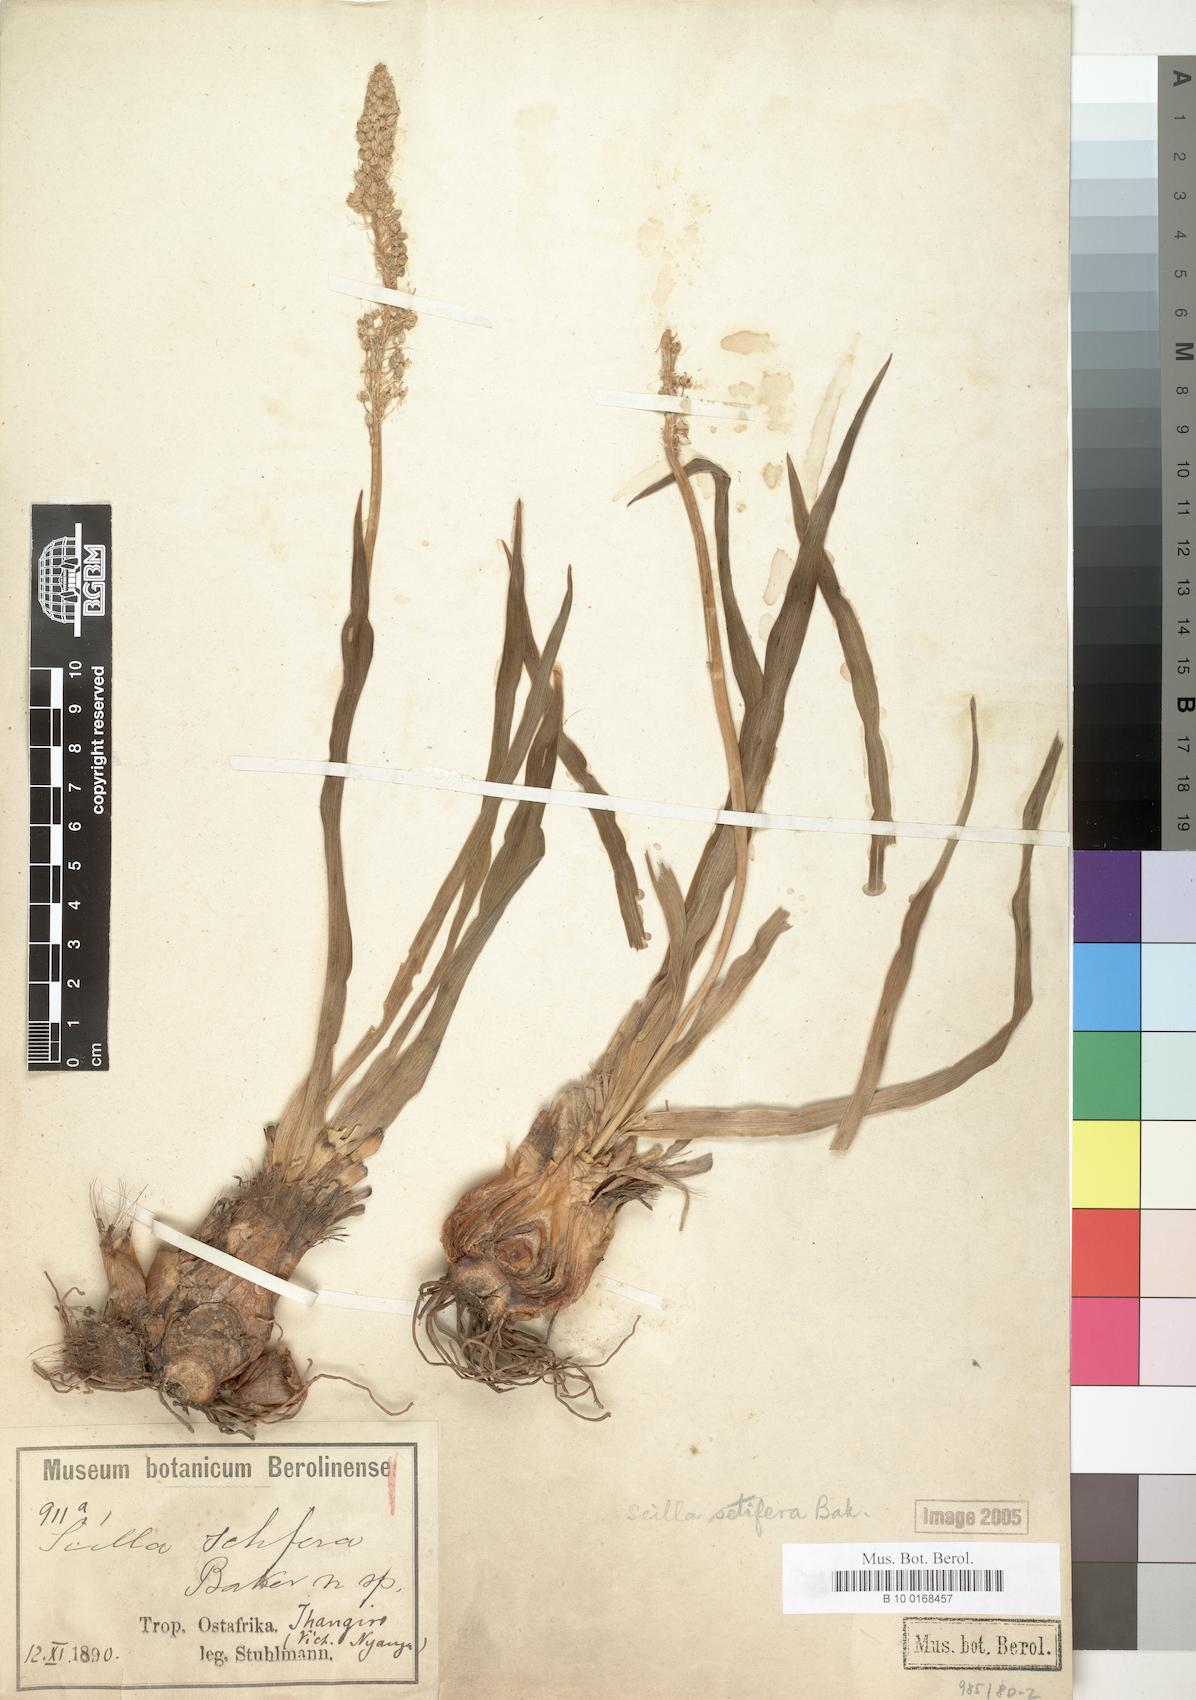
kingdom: Plantae
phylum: Tracheophyta
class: Liliopsida
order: Asparagales
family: Asparagaceae
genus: Schizocarphus
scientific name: Schizocarphus nervosus
